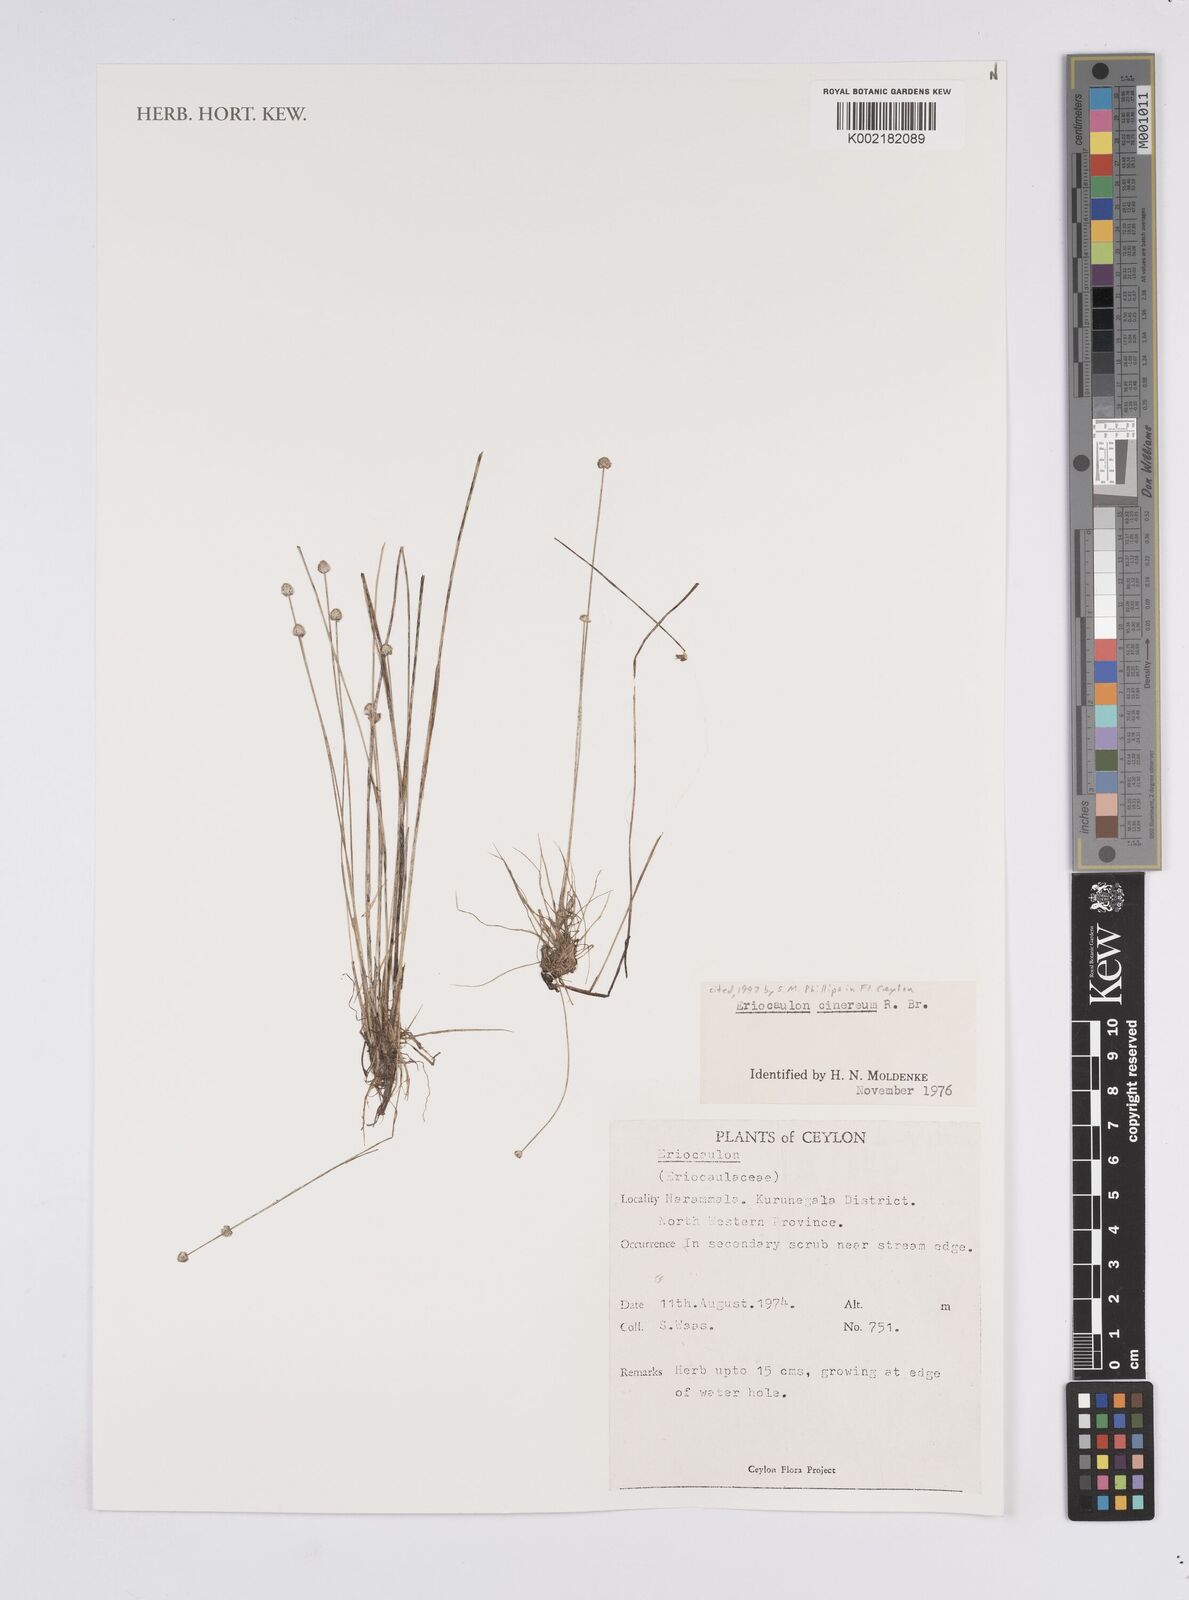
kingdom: Plantae
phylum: Tracheophyta
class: Liliopsida
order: Poales
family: Eriocaulaceae
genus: Eriocaulon
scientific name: Eriocaulon cinereum
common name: Ashy pipewort
